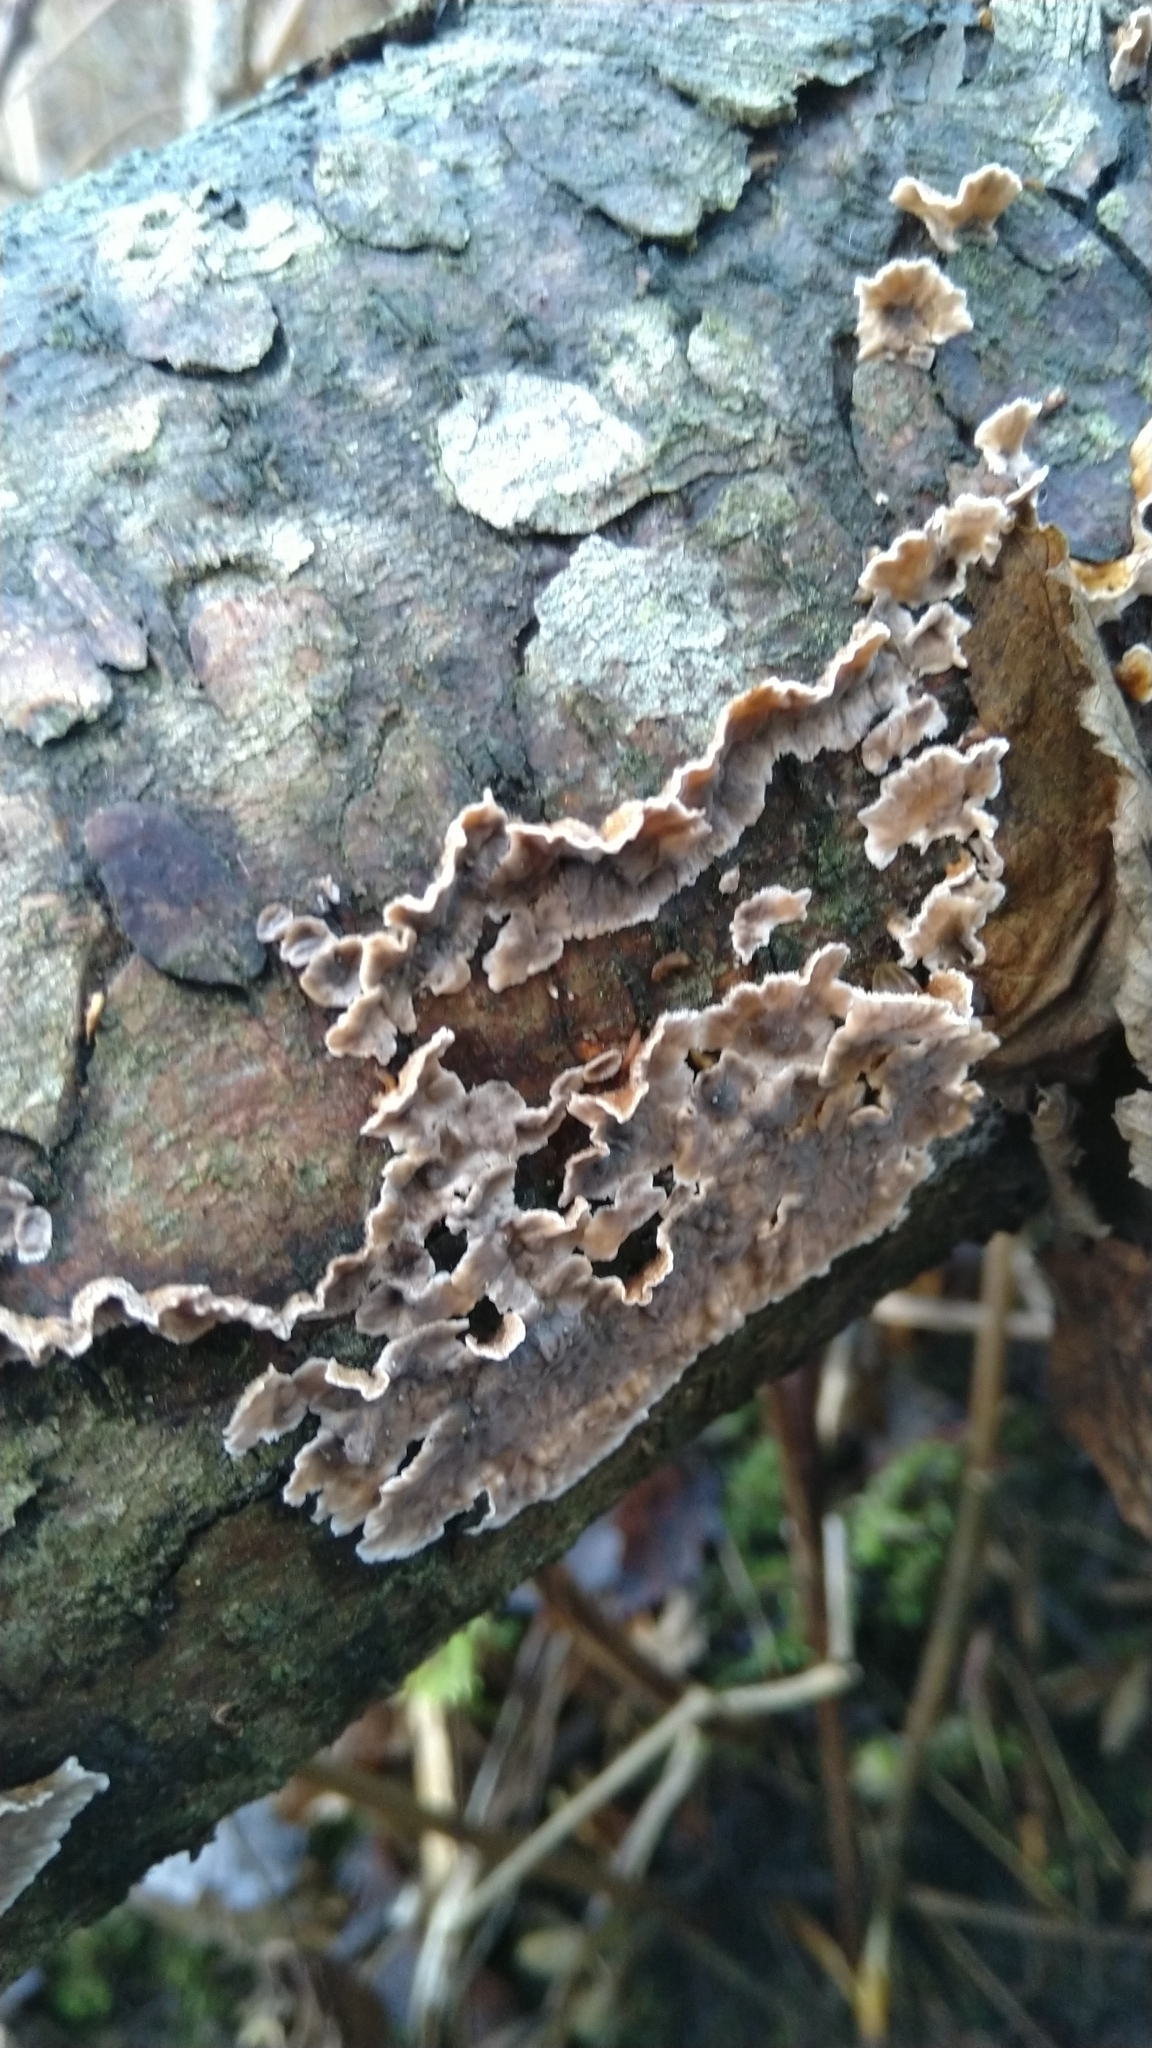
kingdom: Fungi
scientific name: Fungi
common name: Fungi
